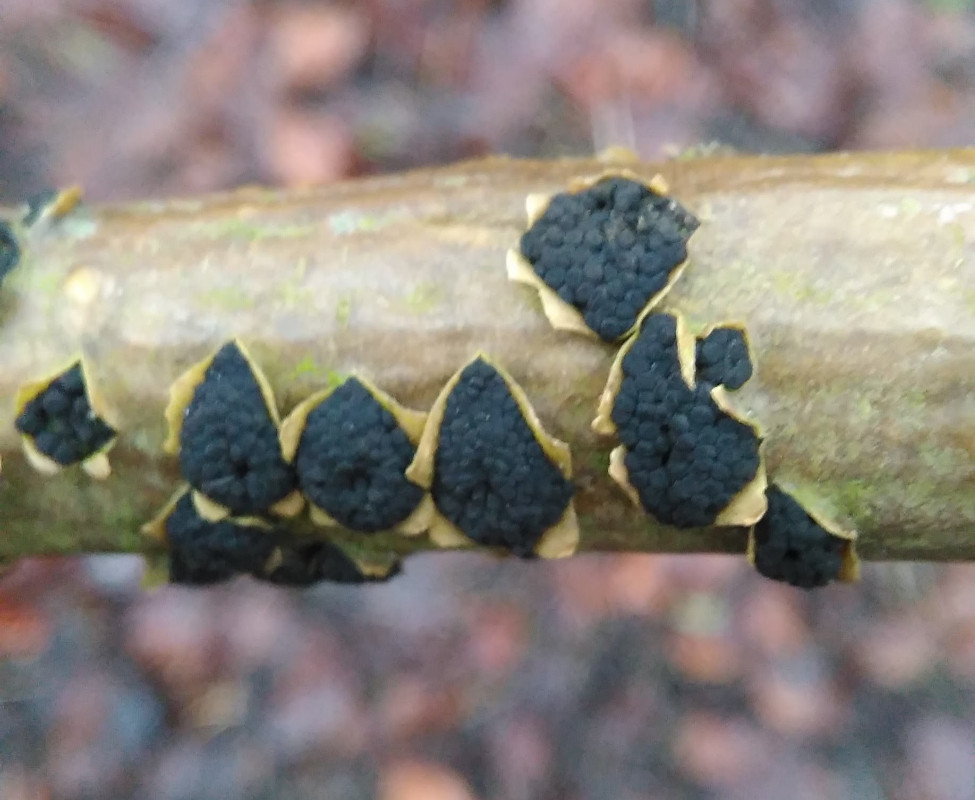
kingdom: Fungi
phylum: Ascomycota
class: Dothideomycetes
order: Pleosporales
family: Camarosporidiellaceae
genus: Camarosporidiella
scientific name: Camarosporidiella laburni
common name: guldregn-tykbær
